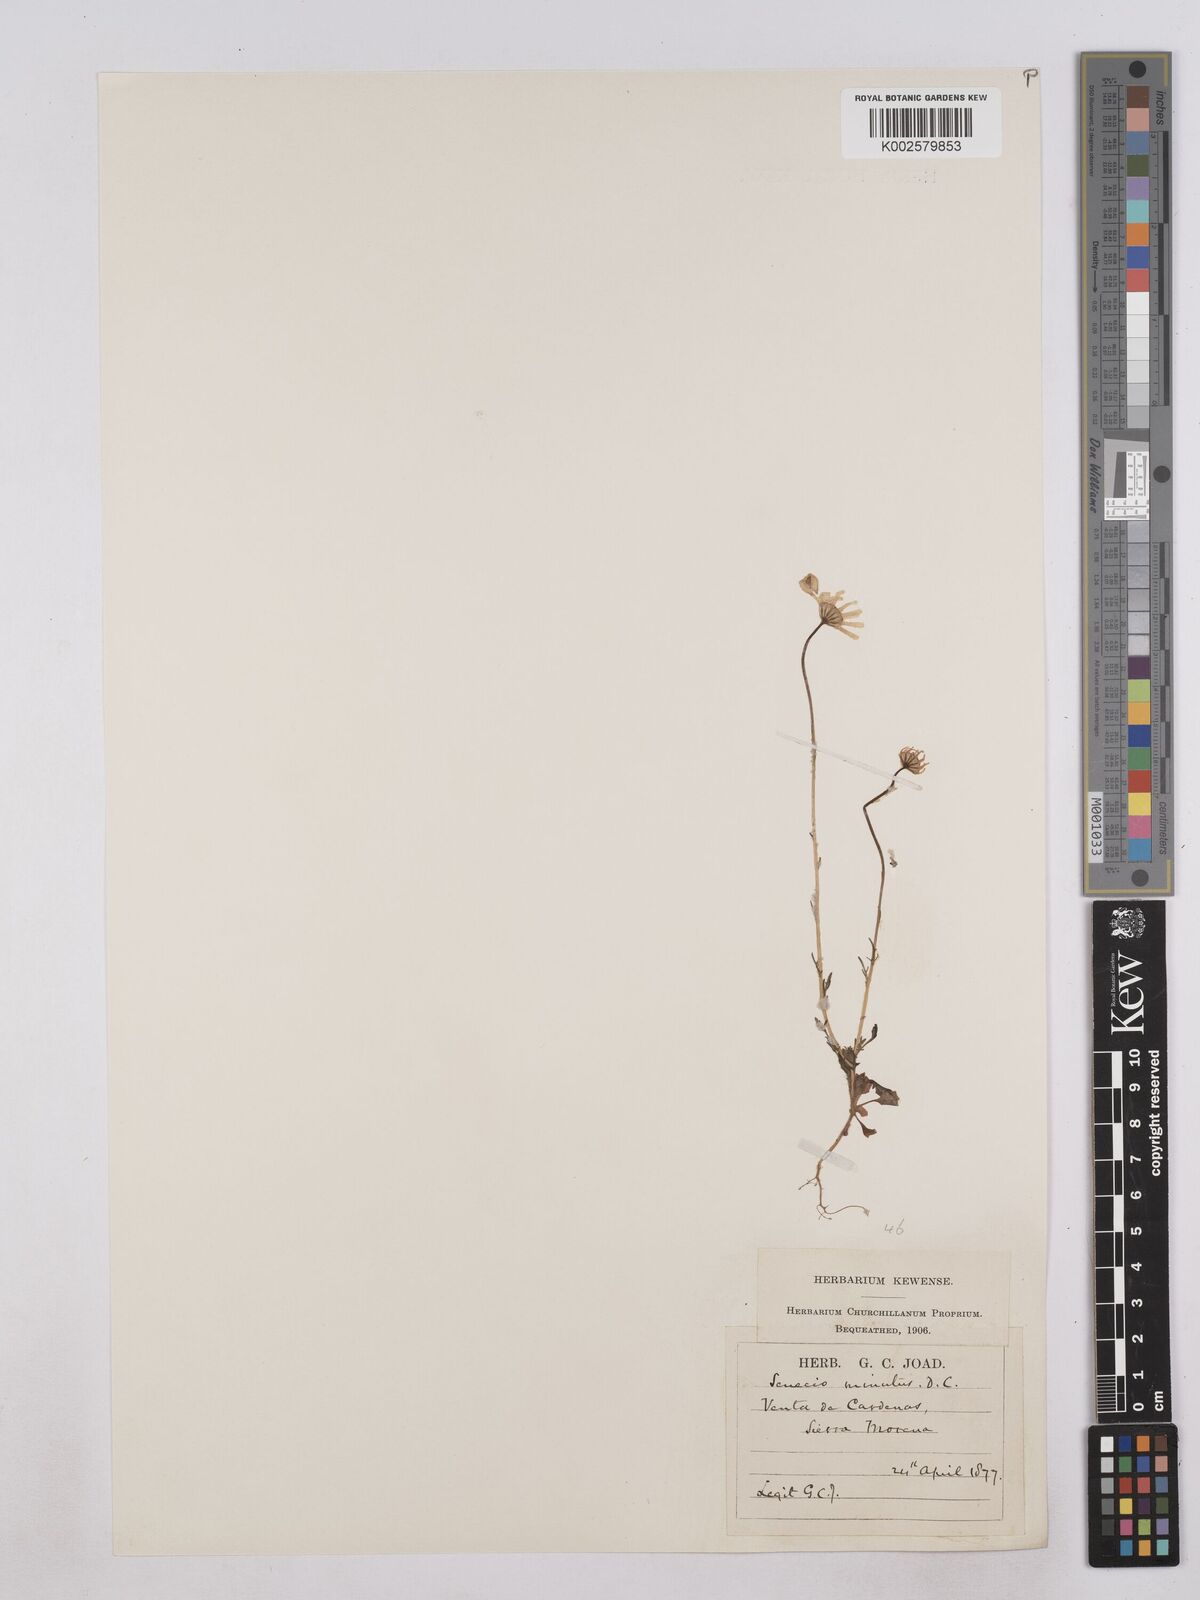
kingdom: Plantae
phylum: Tracheophyta
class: Magnoliopsida
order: Asterales
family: Asteraceae
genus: Jacobaea
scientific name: Jacobaea minuta
